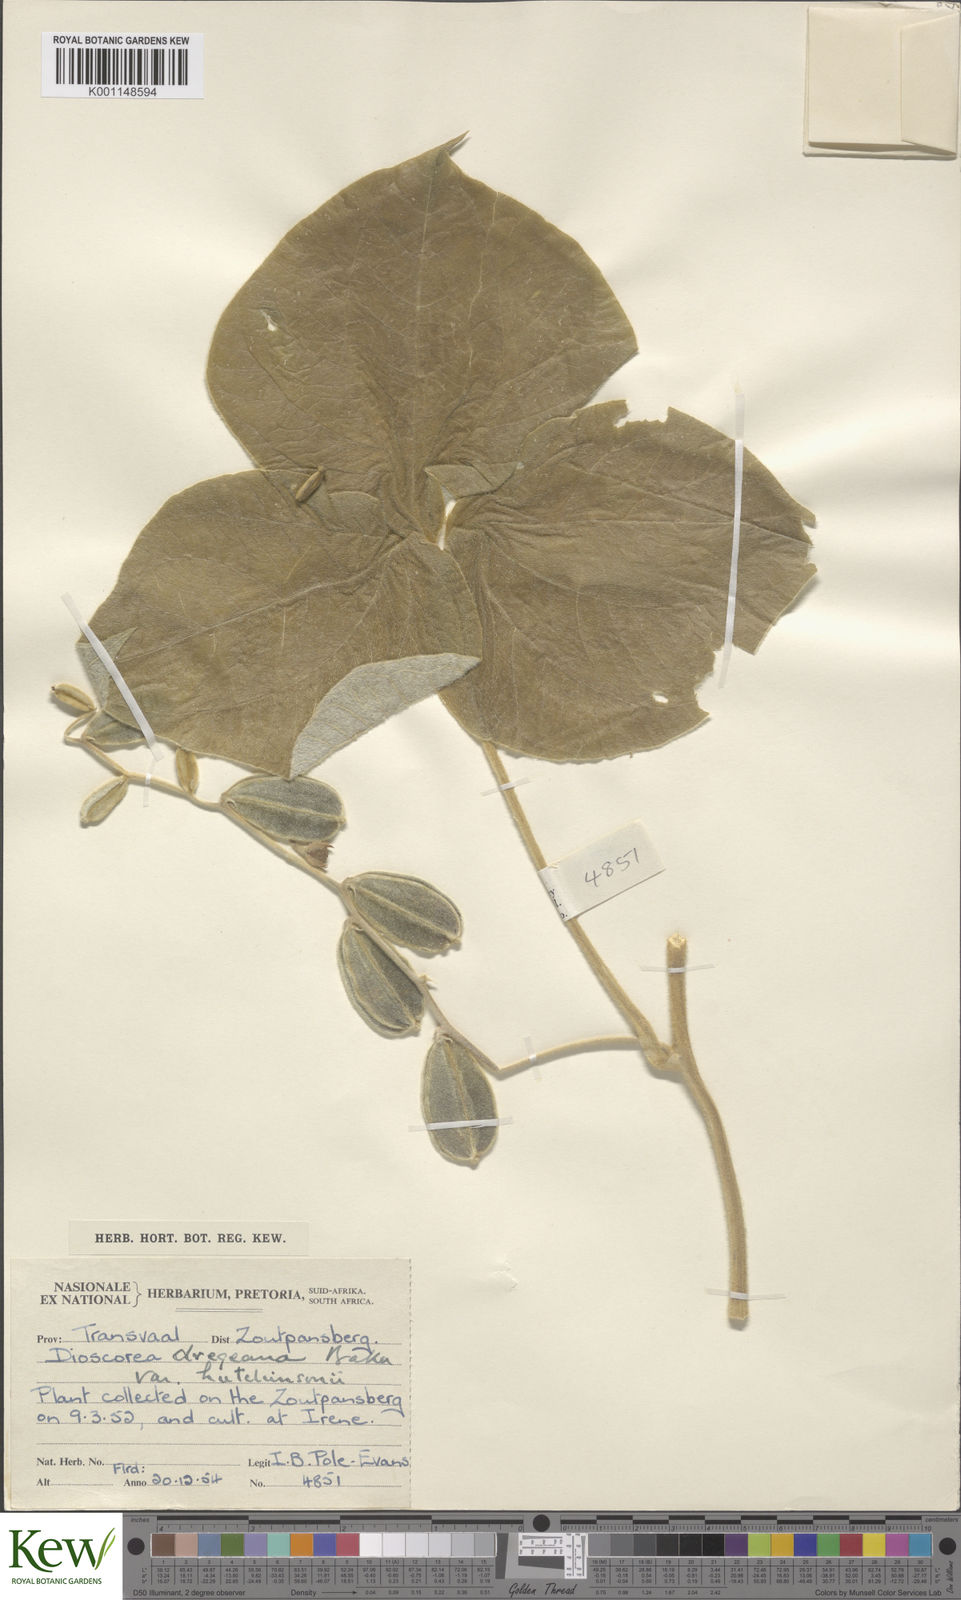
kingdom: Plantae
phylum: Tracheophyta
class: Liliopsida
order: Dioscoreales
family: Dioscoreaceae
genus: Dioscorea
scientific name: Dioscorea dregeana
